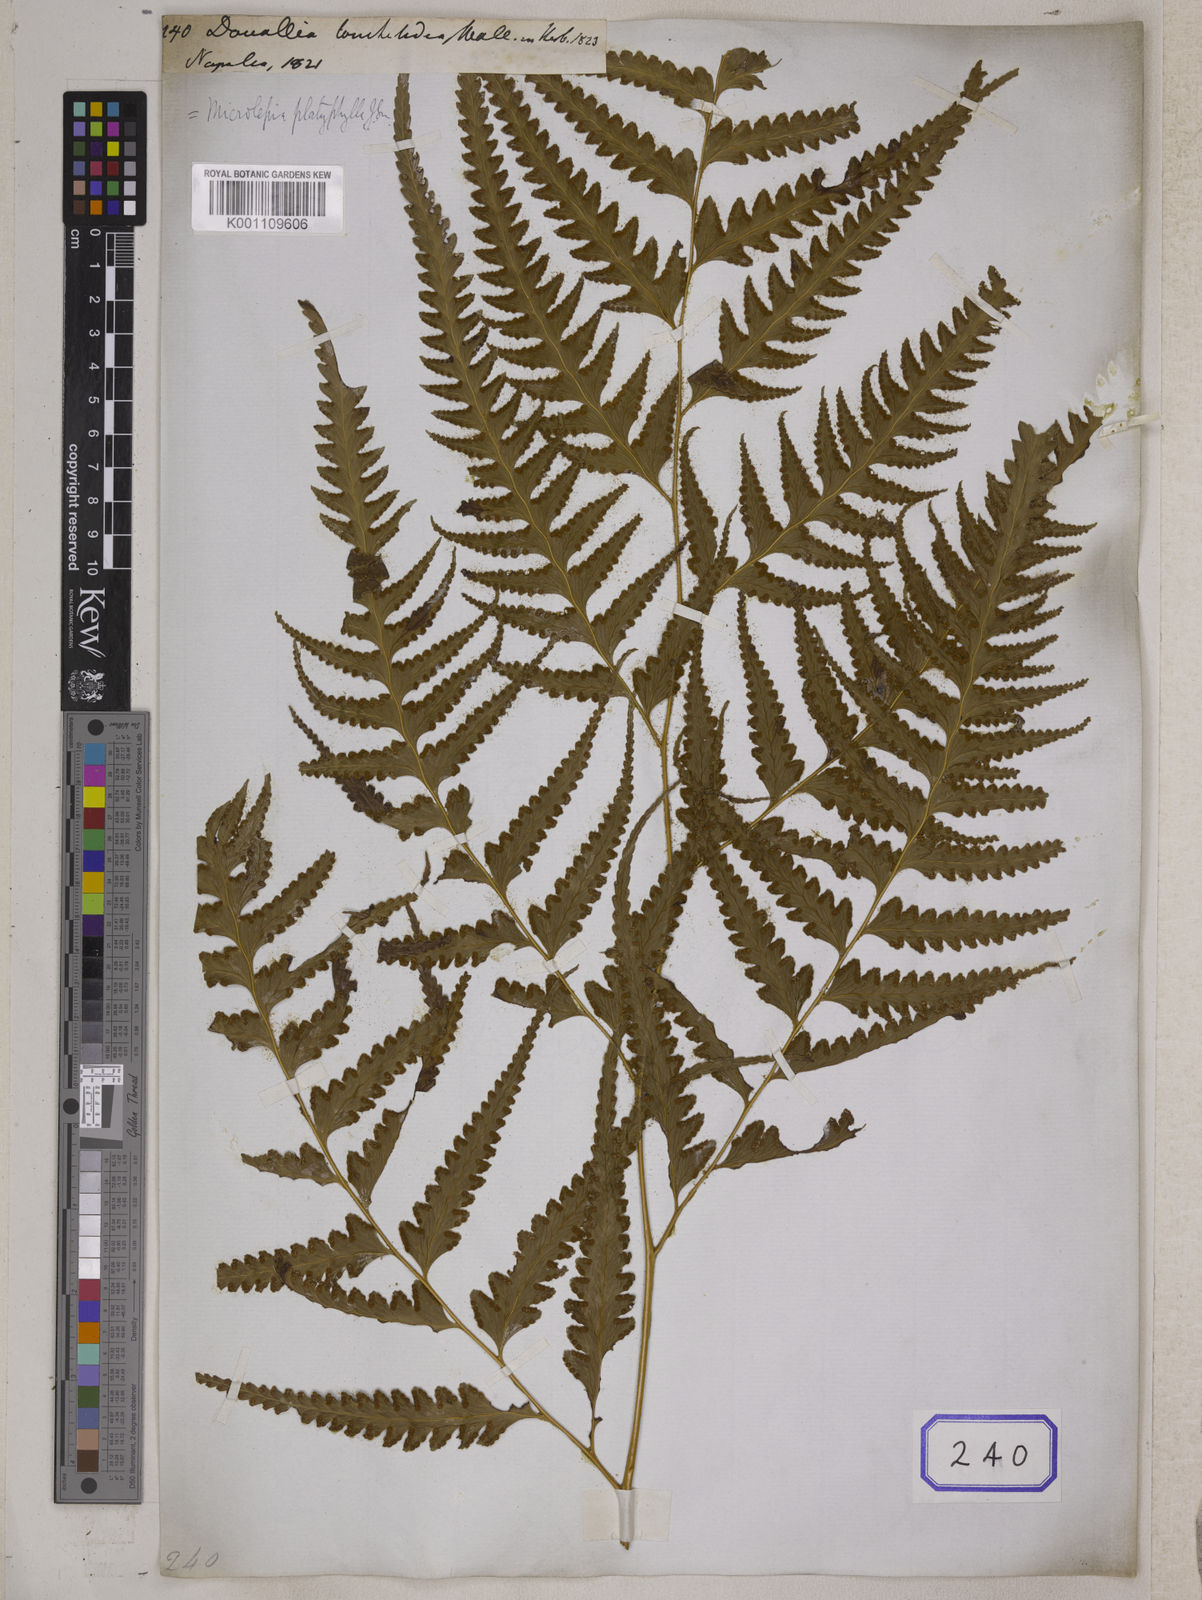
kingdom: Plantae
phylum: Tracheophyta
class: Polypodiopsida
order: Polypodiales
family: Dennstaedtiaceae
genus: Microlepia
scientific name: Microlepia platyphylla
